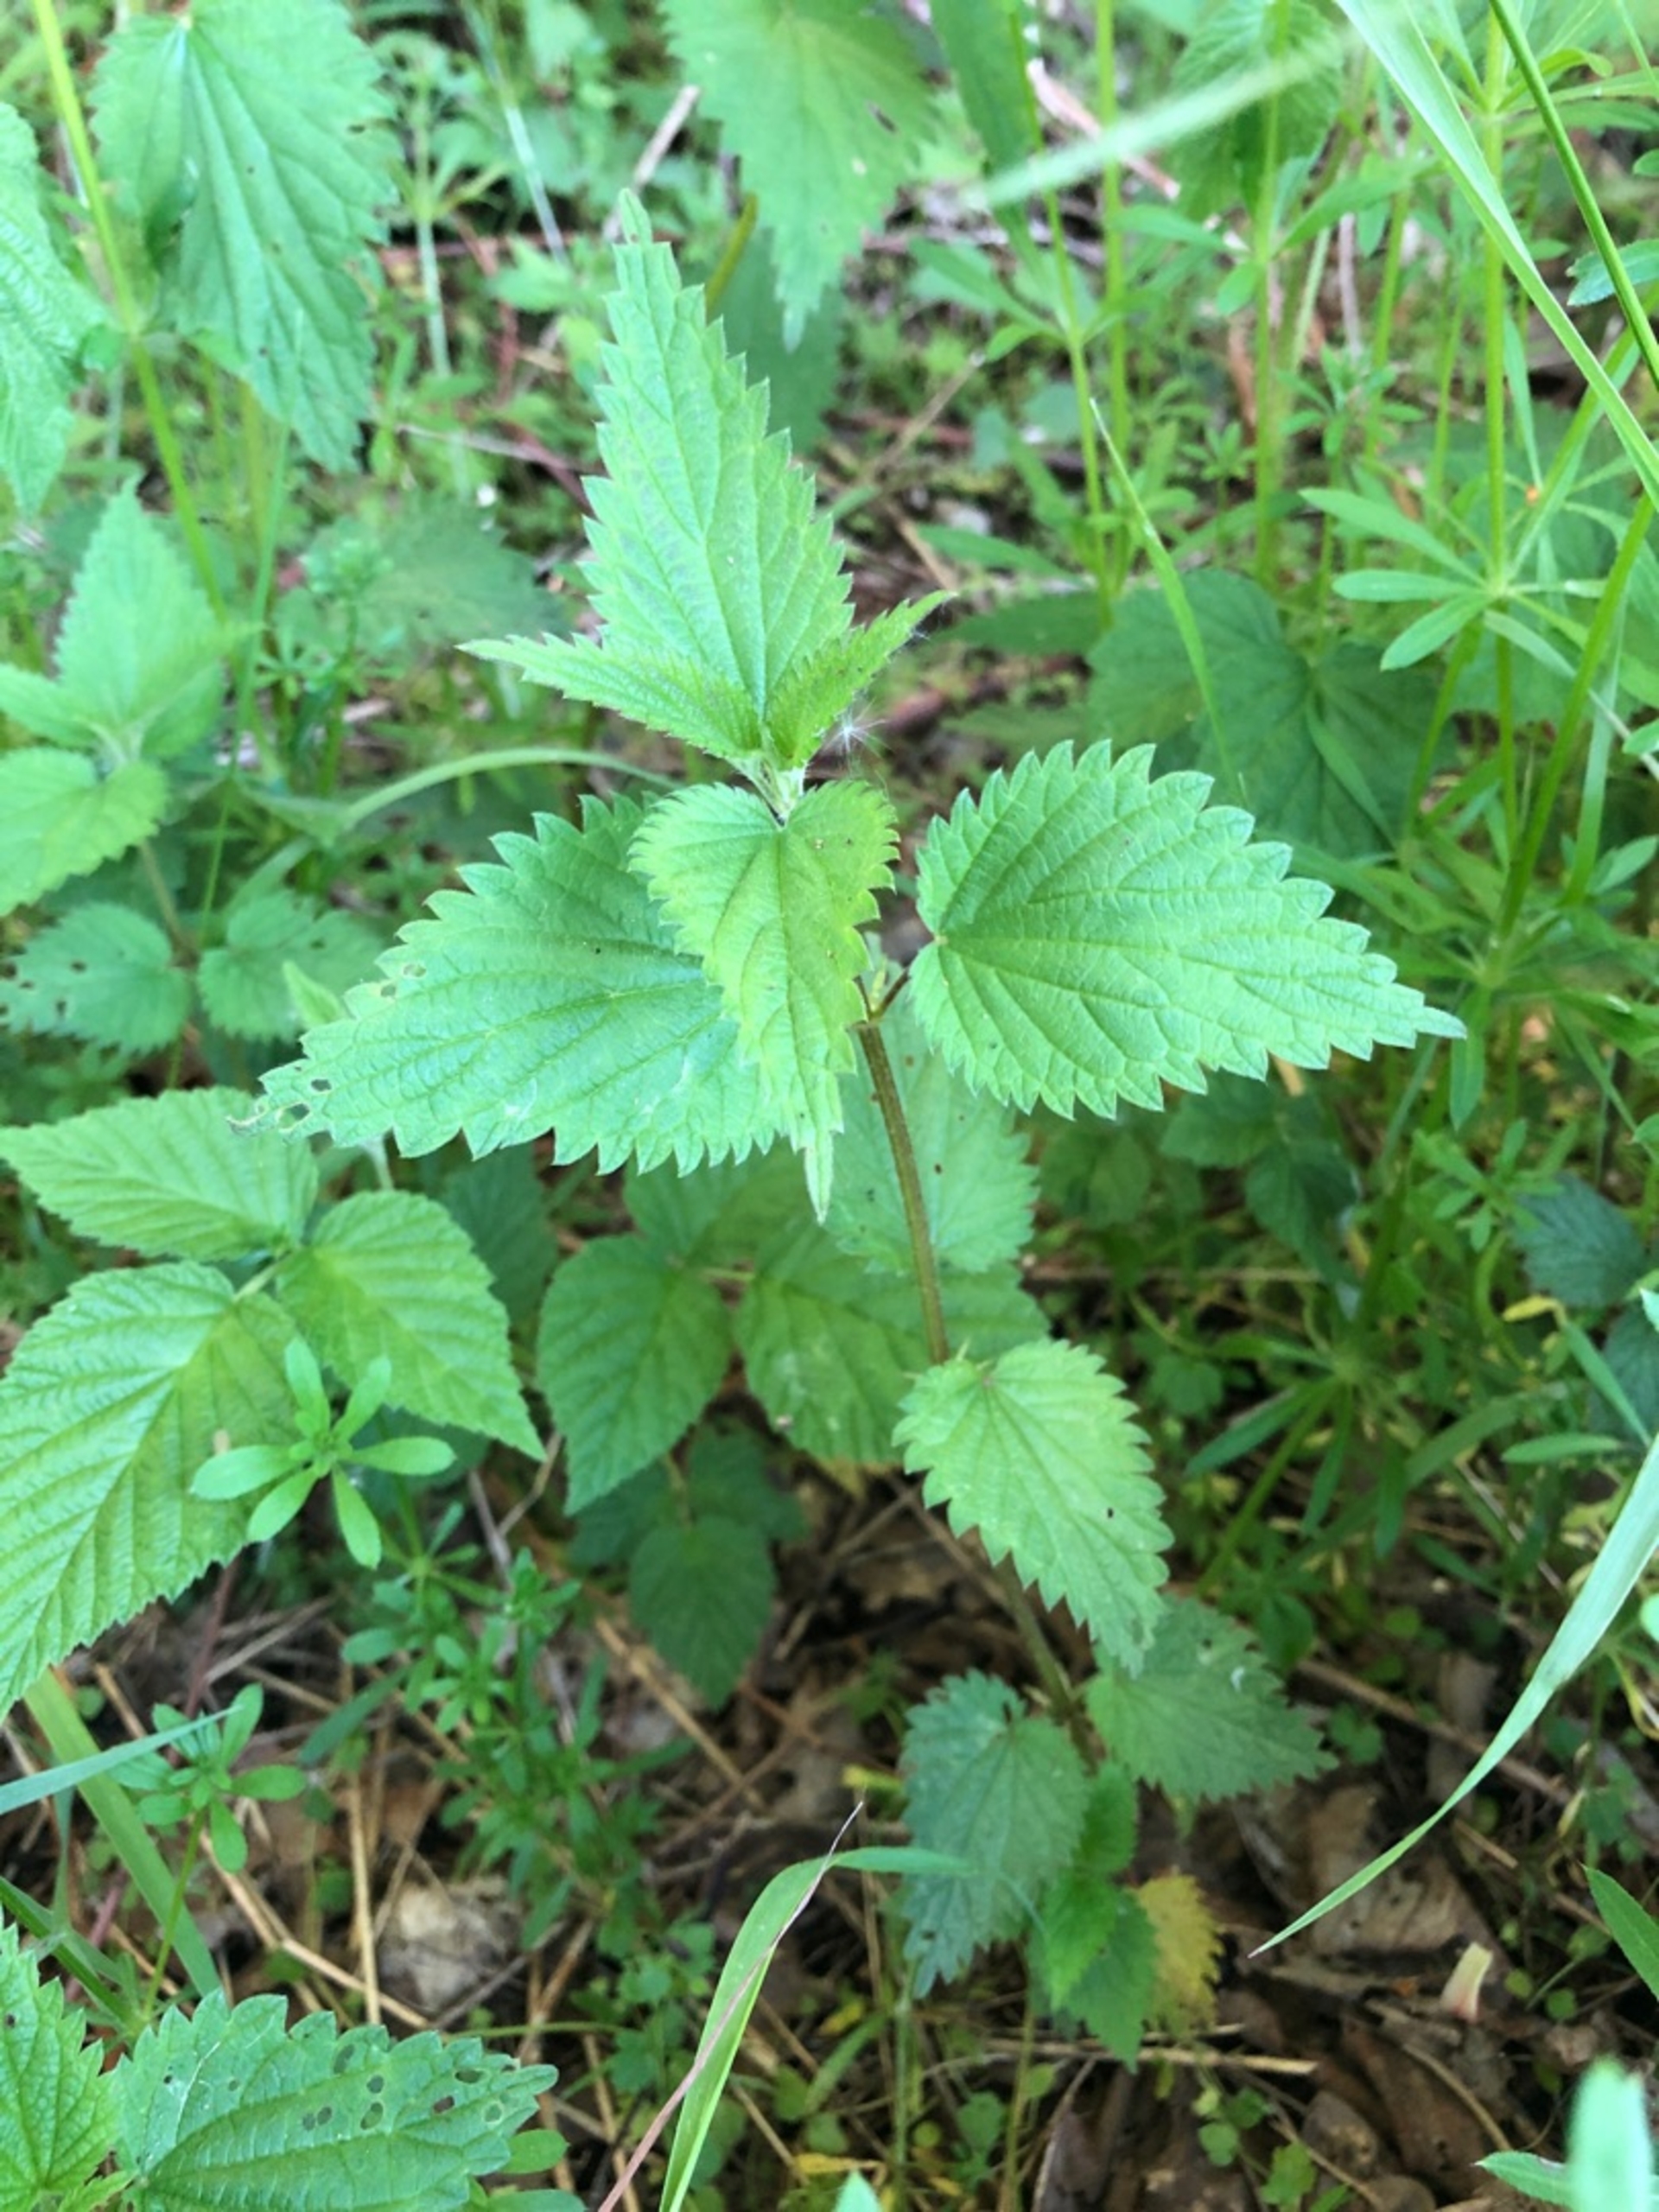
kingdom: Plantae
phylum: Tracheophyta
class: Magnoliopsida
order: Rosales
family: Urticaceae
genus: Urtica
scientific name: Urtica dioica
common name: Stor nælde
